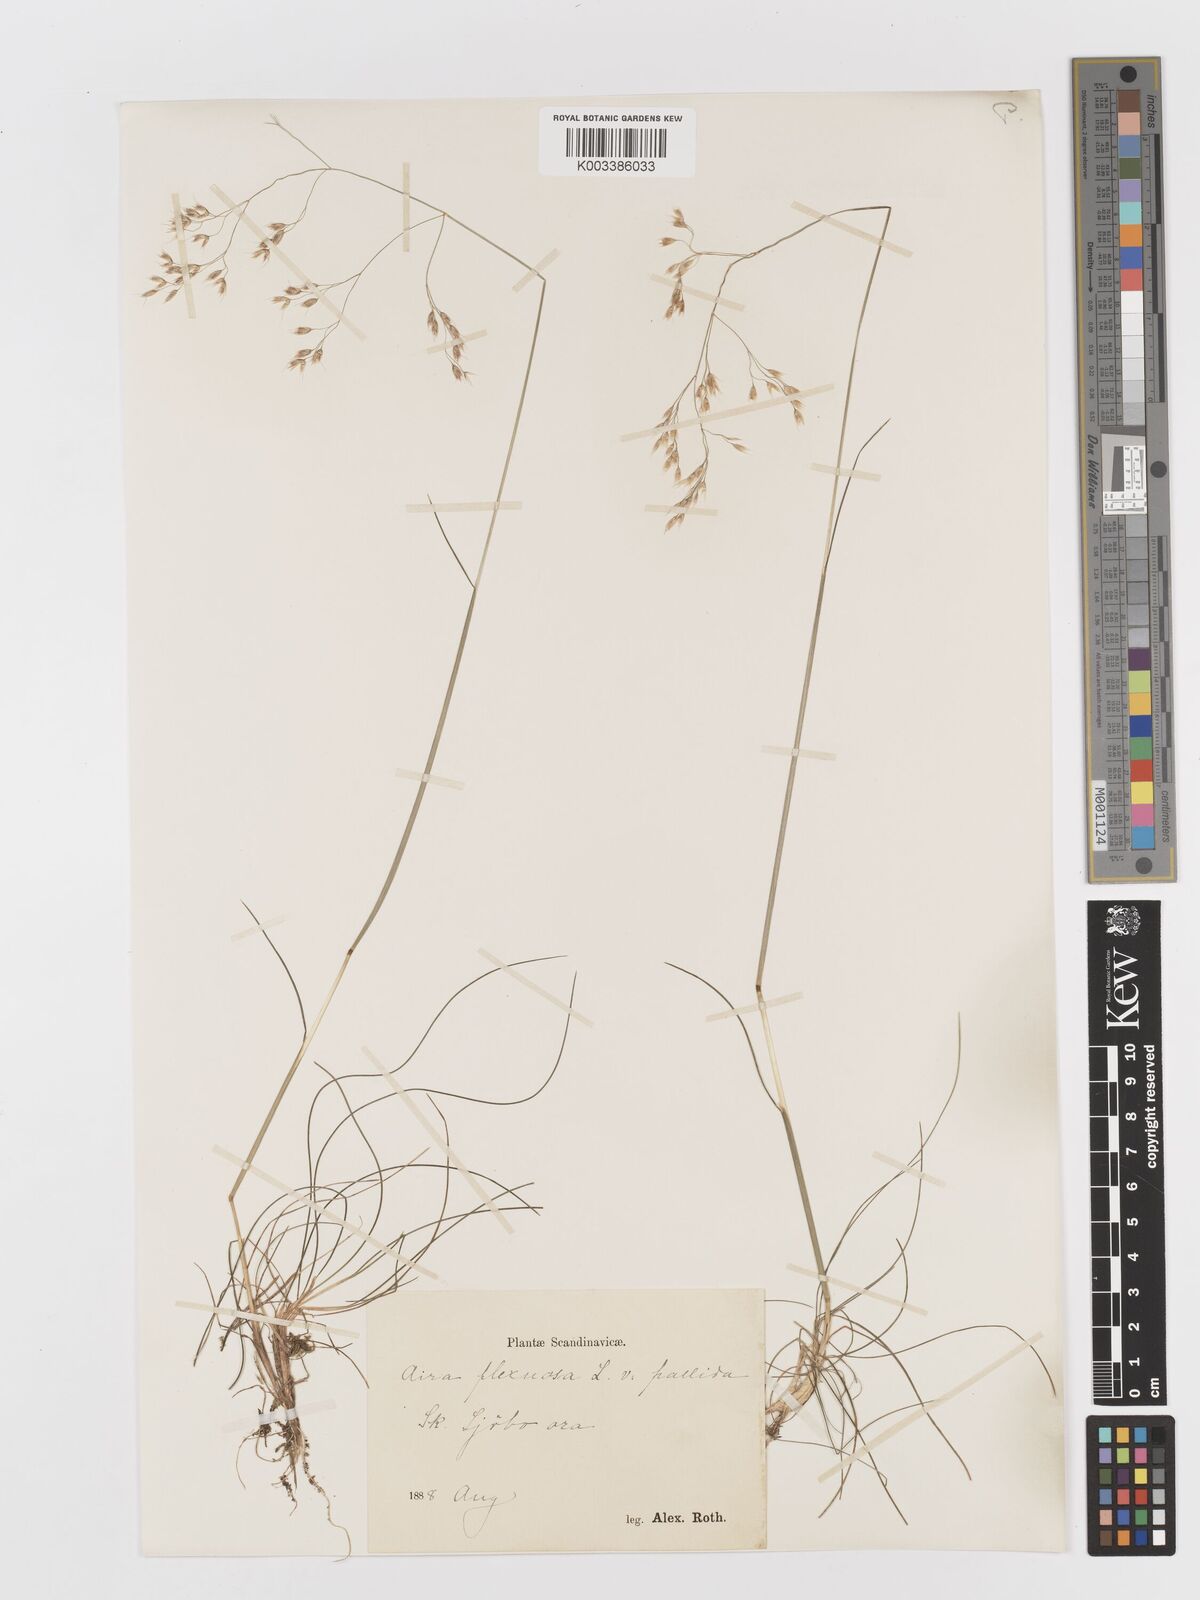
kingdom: Plantae
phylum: Tracheophyta
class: Liliopsida
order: Poales
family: Poaceae
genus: Avenella
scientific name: Avenella flexuosa
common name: Wavy hairgrass
